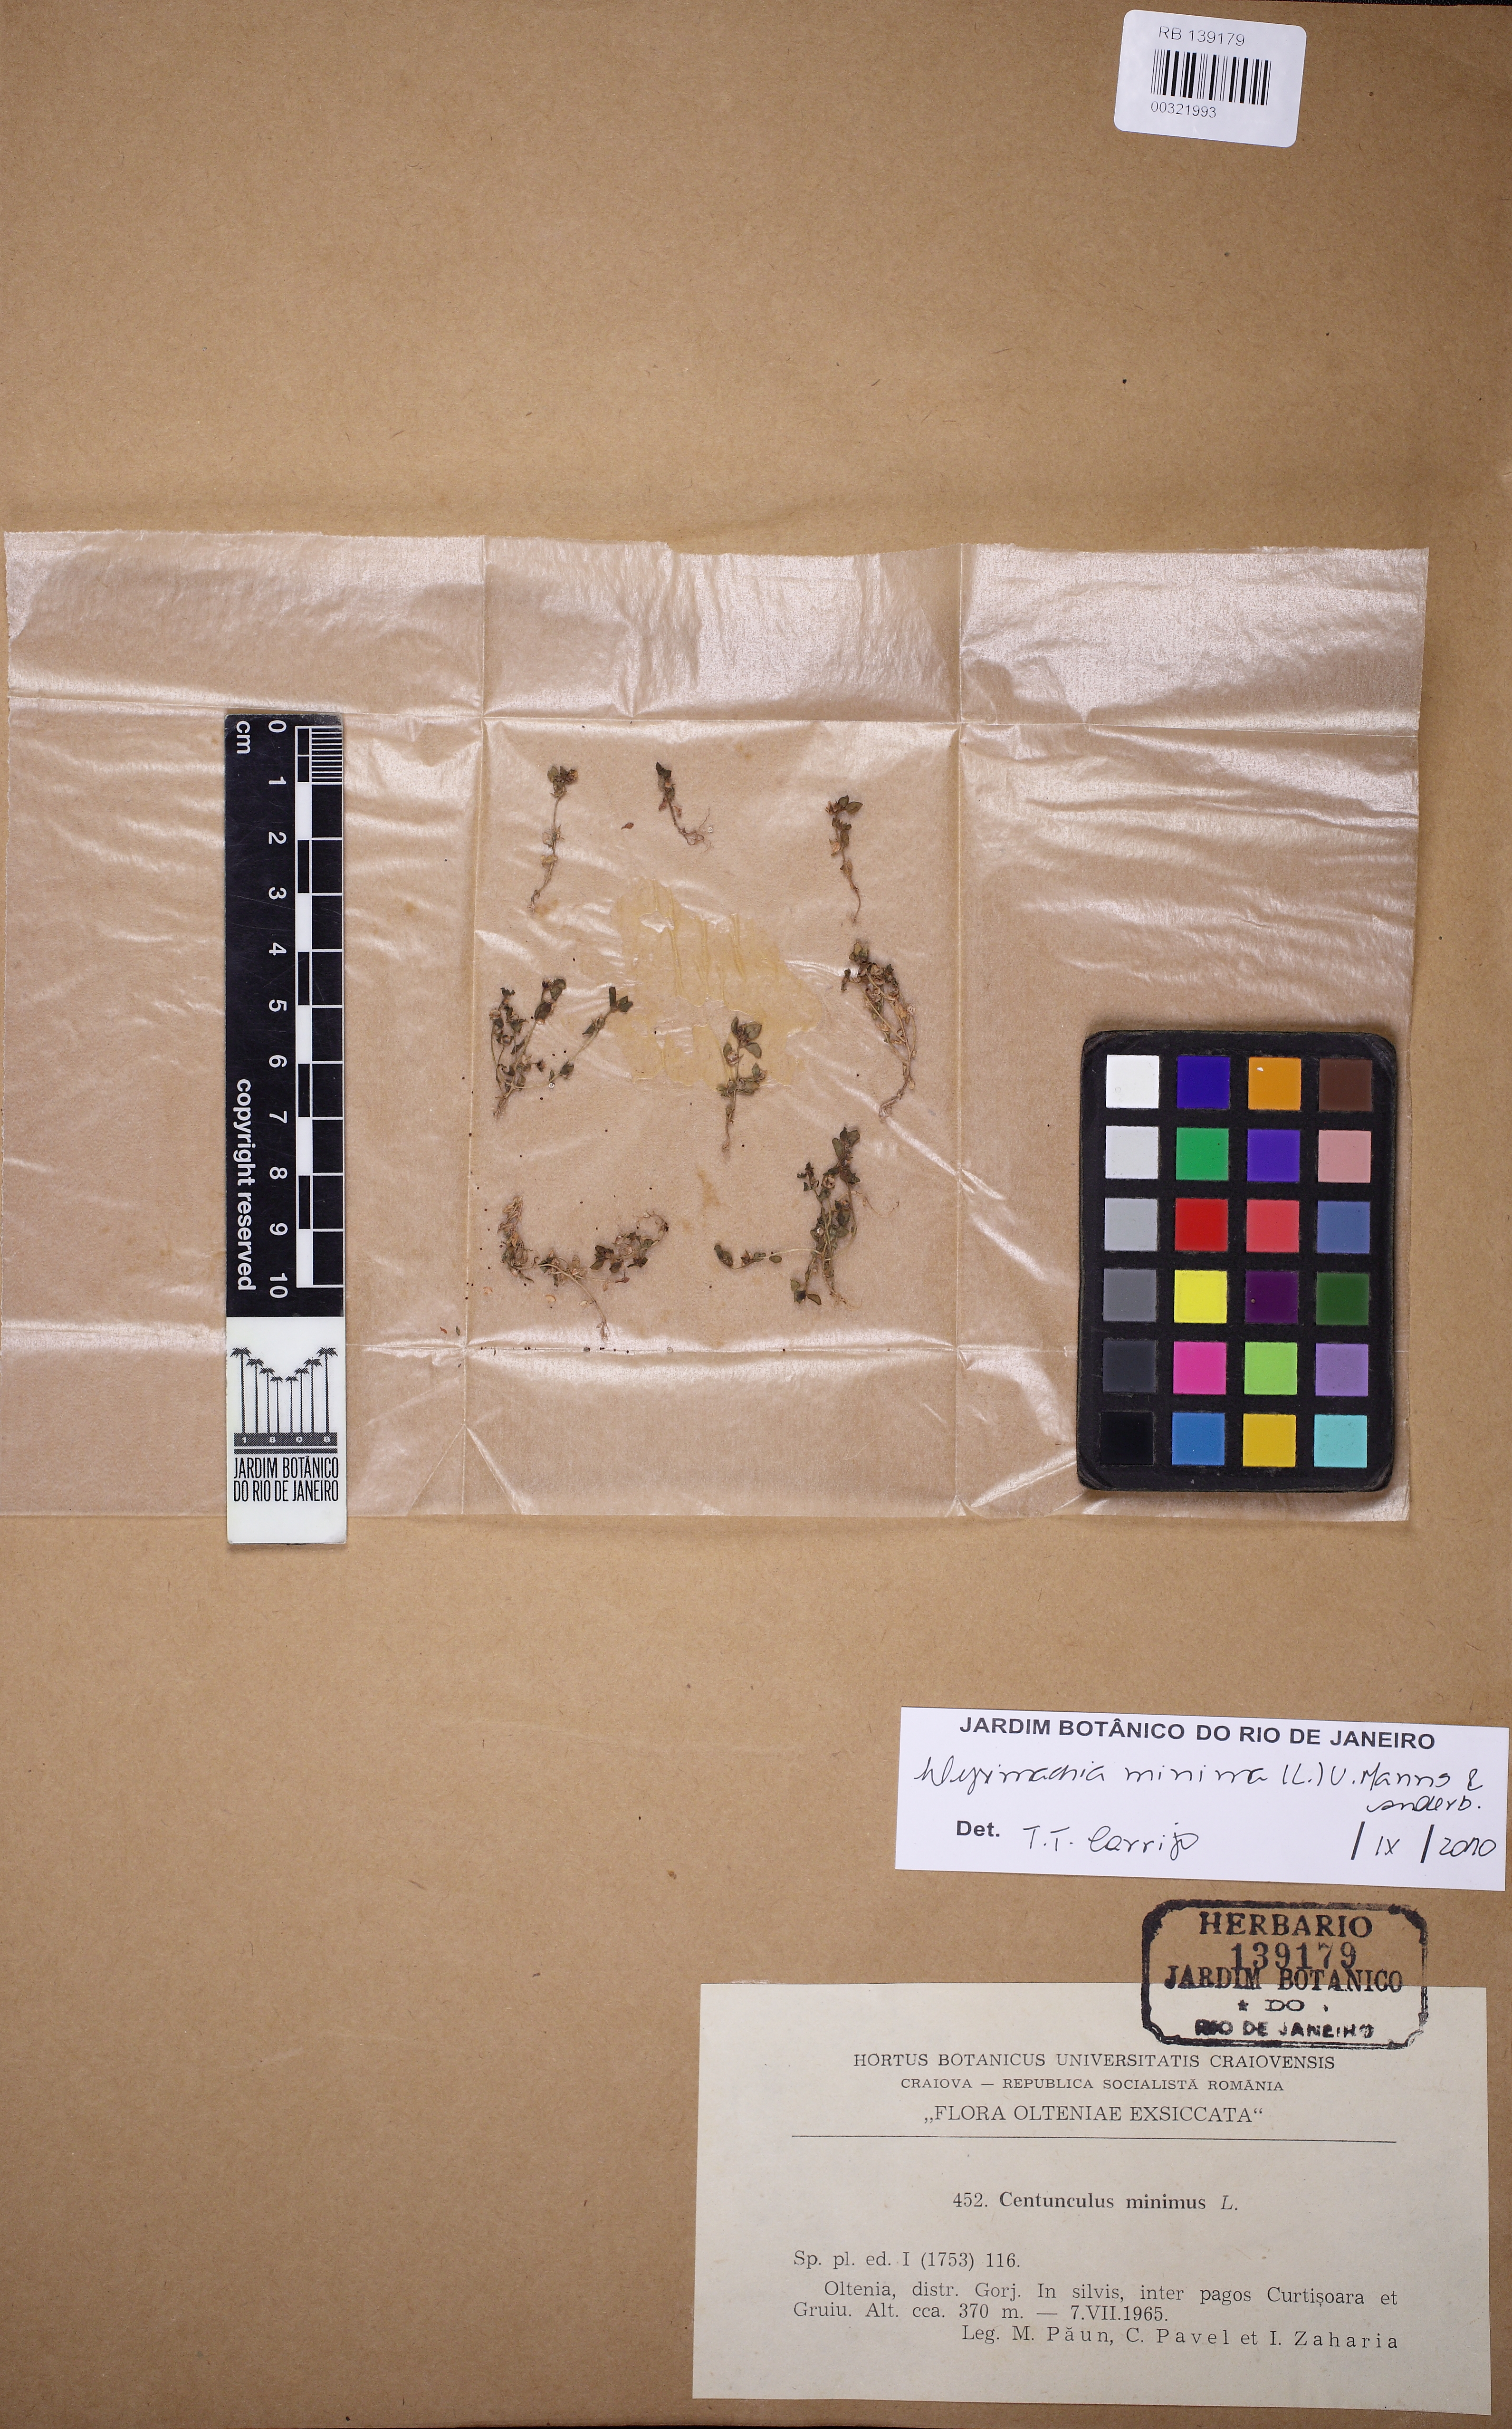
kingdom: Plantae
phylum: Tracheophyta
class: Magnoliopsida
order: Ericales
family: Primulaceae
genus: Lysimachia
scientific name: Lysimachia minima
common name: Chaffweed
